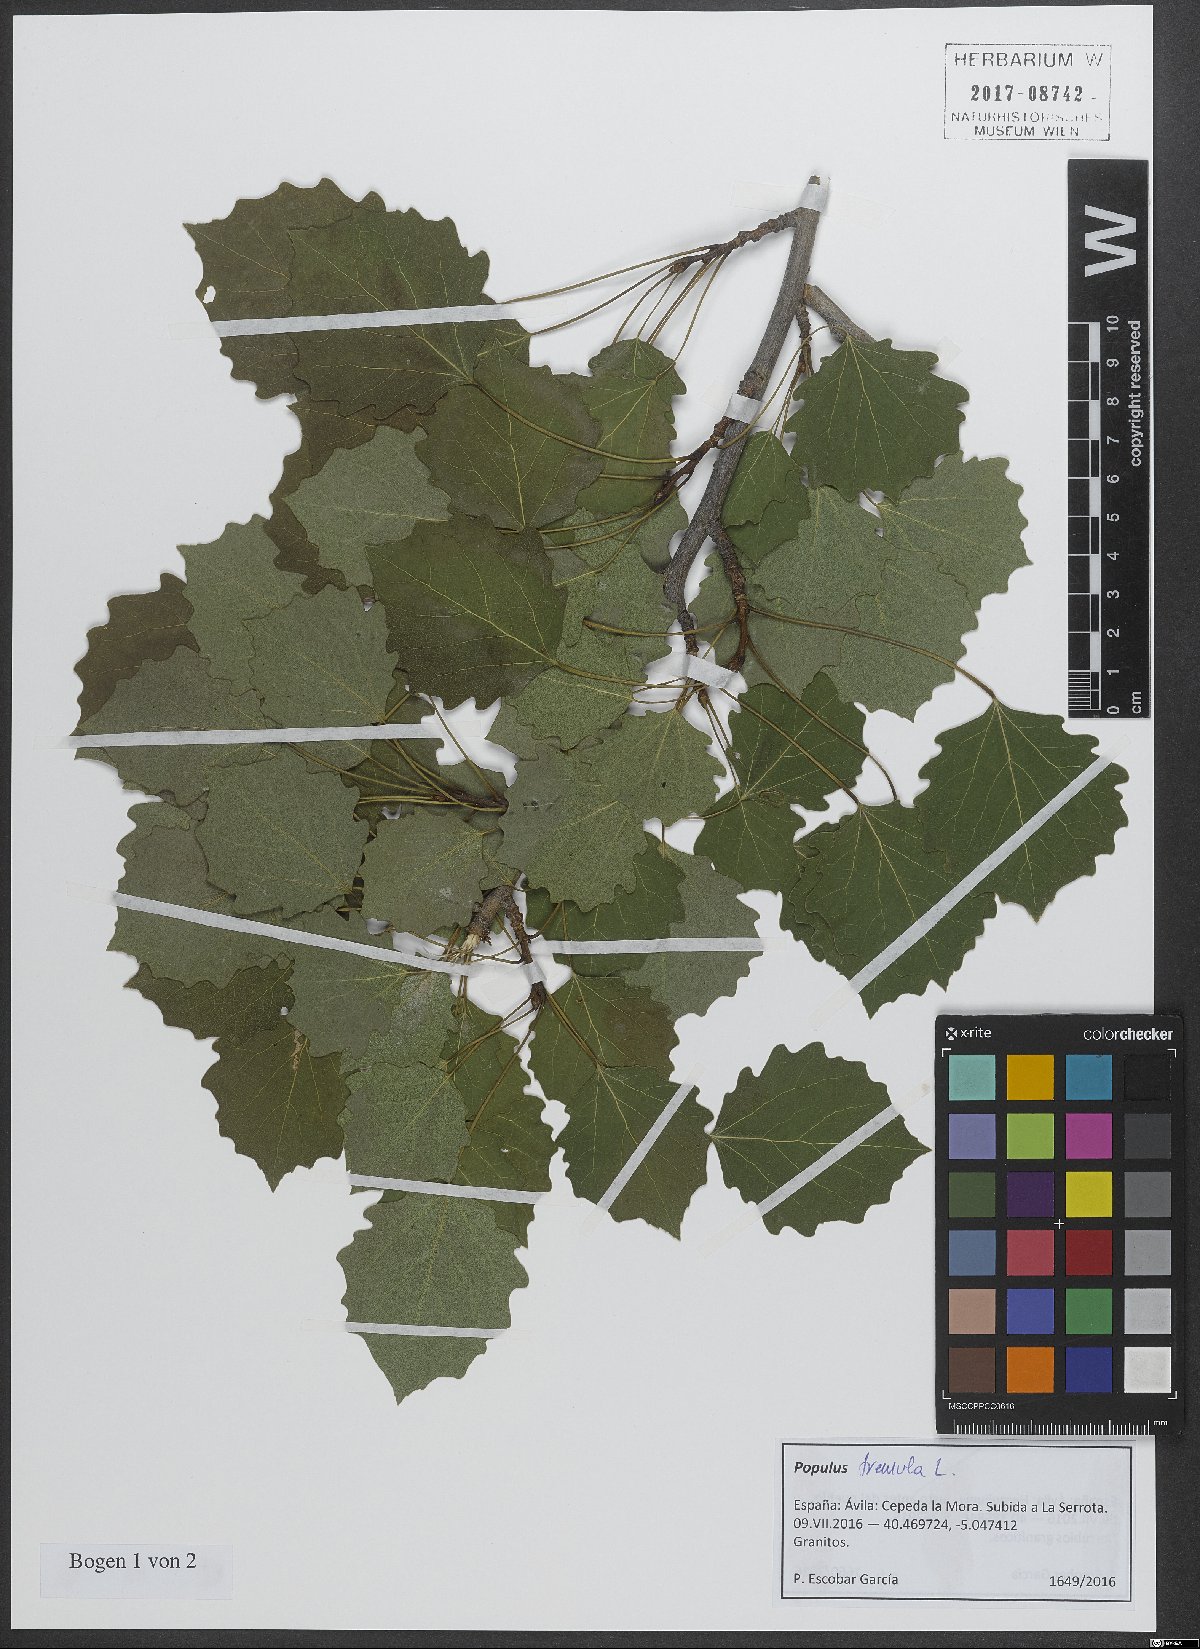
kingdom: Plantae
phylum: Tracheophyta
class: Magnoliopsida
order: Malpighiales
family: Salicaceae
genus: Populus
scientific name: Populus tremula
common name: European aspen
